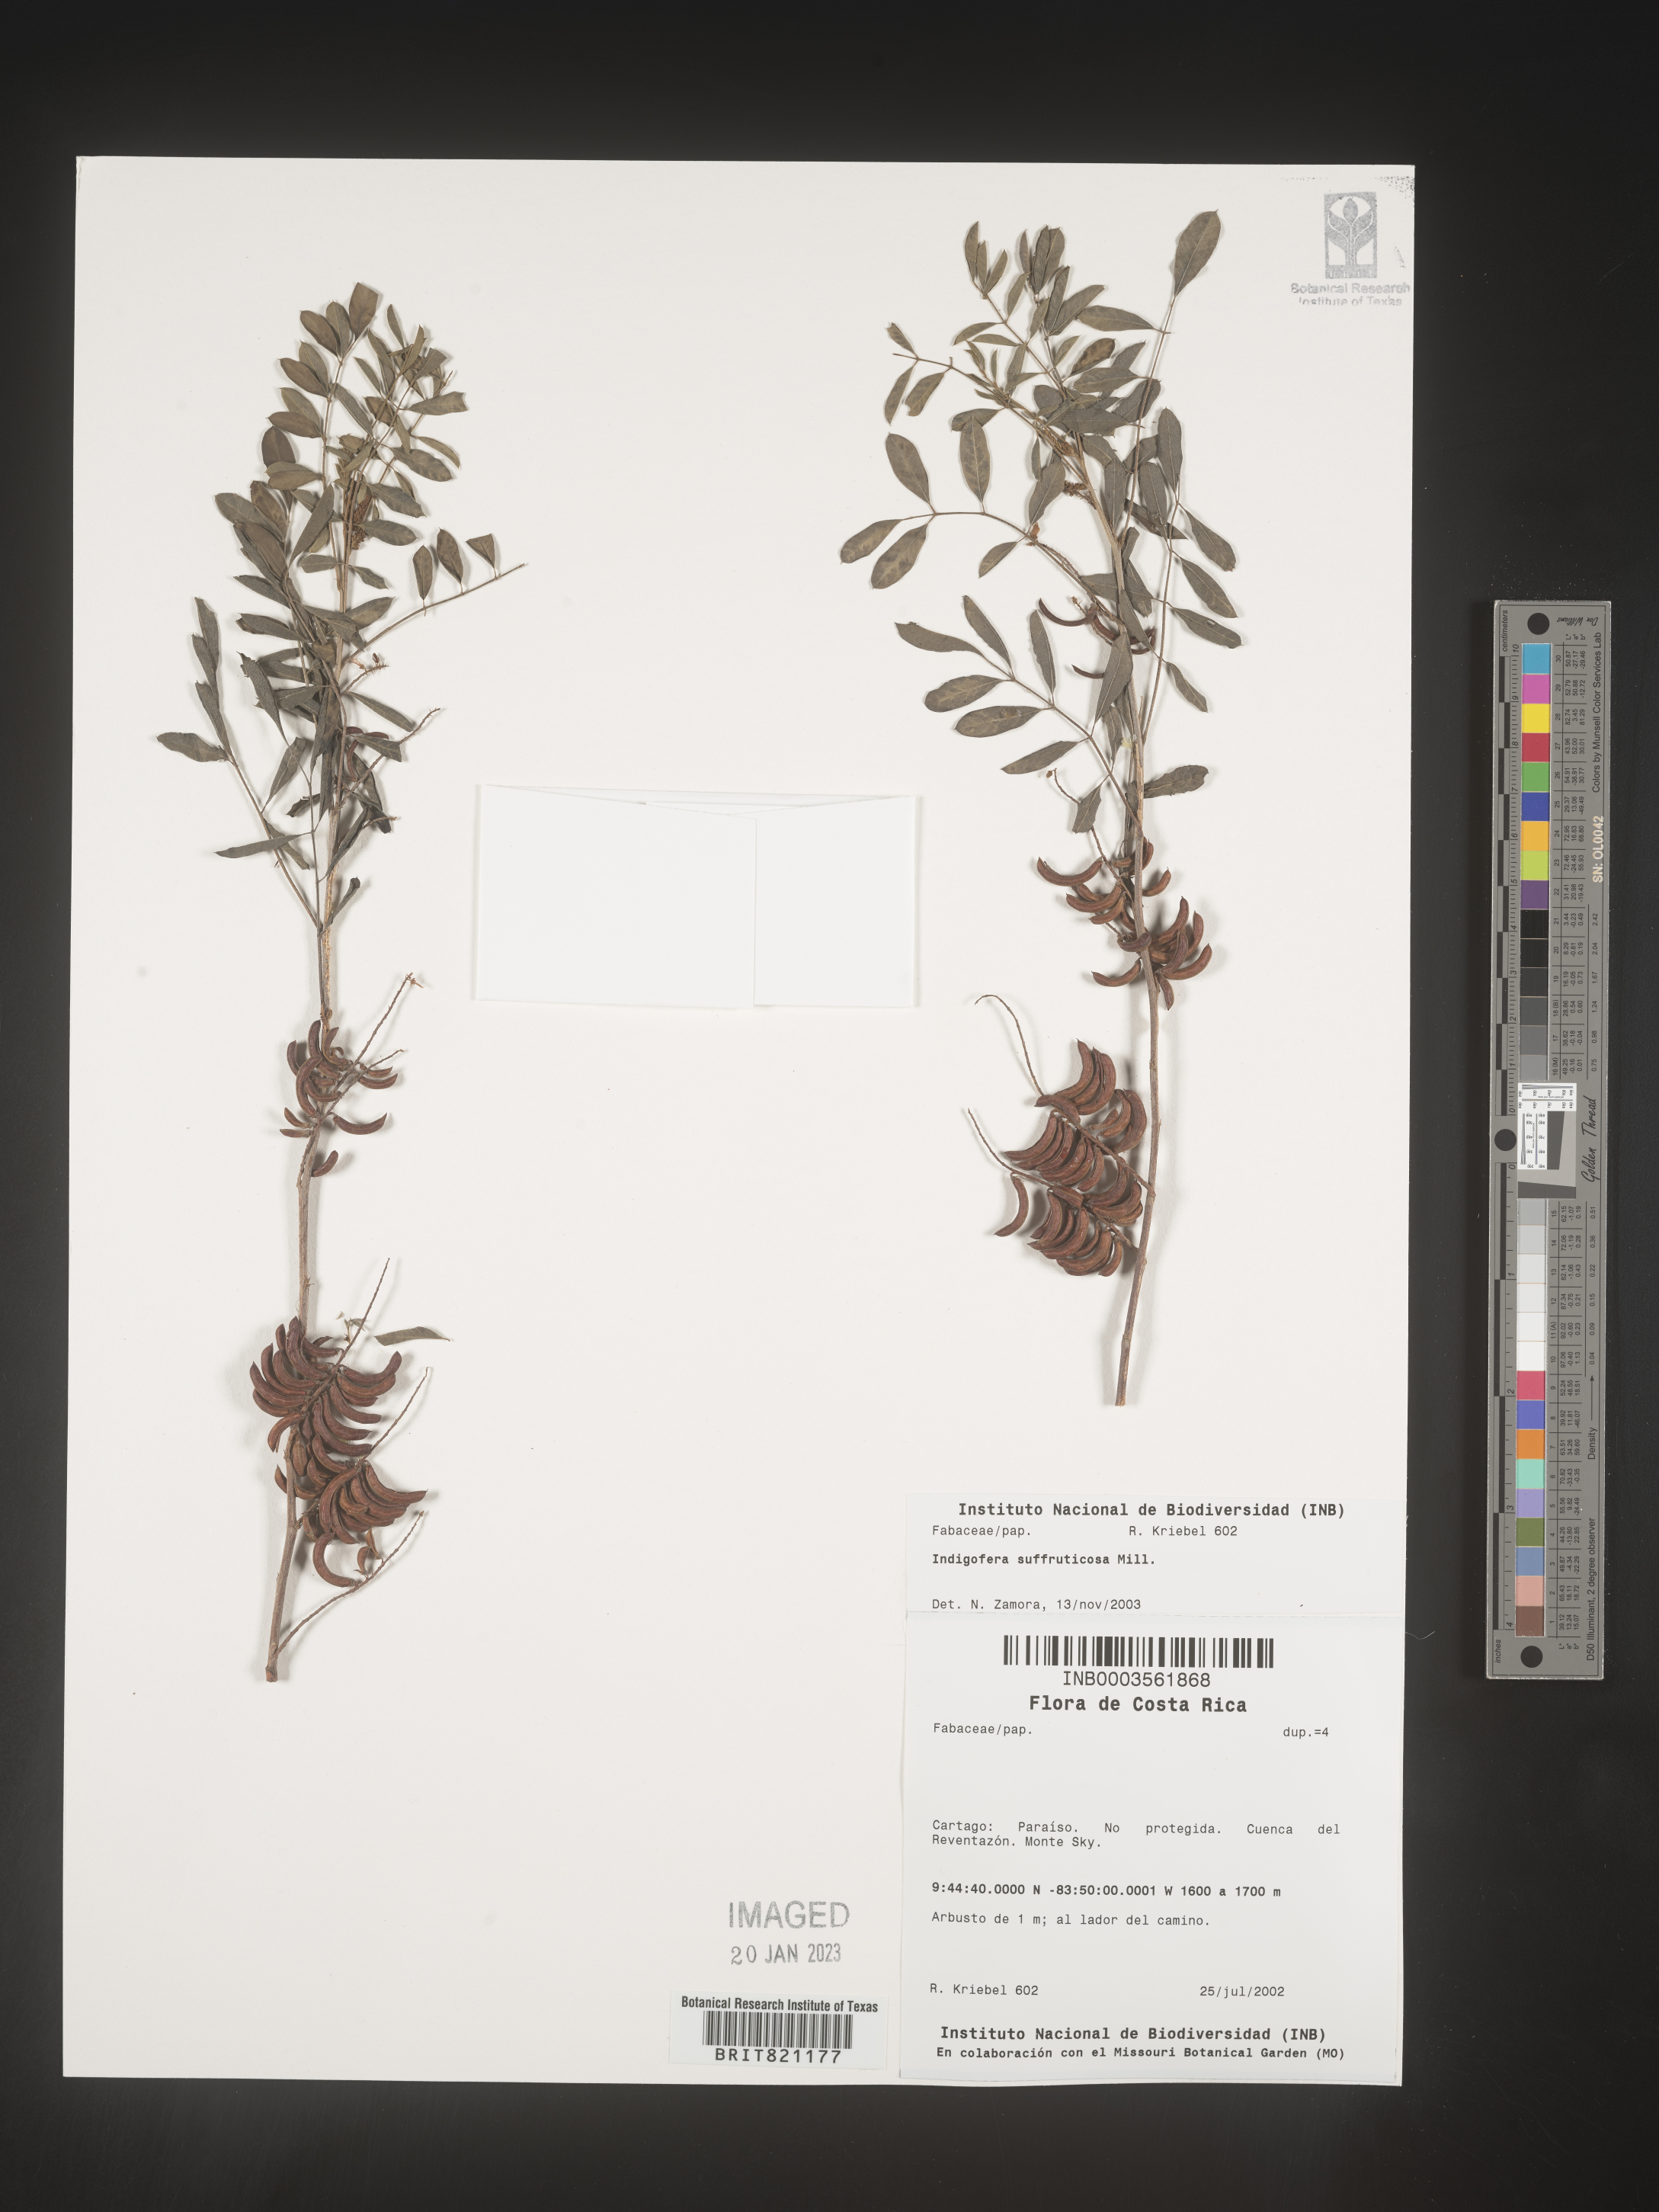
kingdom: Plantae
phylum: Tracheophyta
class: Magnoliopsida
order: Fabales
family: Fabaceae
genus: Indigofera
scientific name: Indigofera
